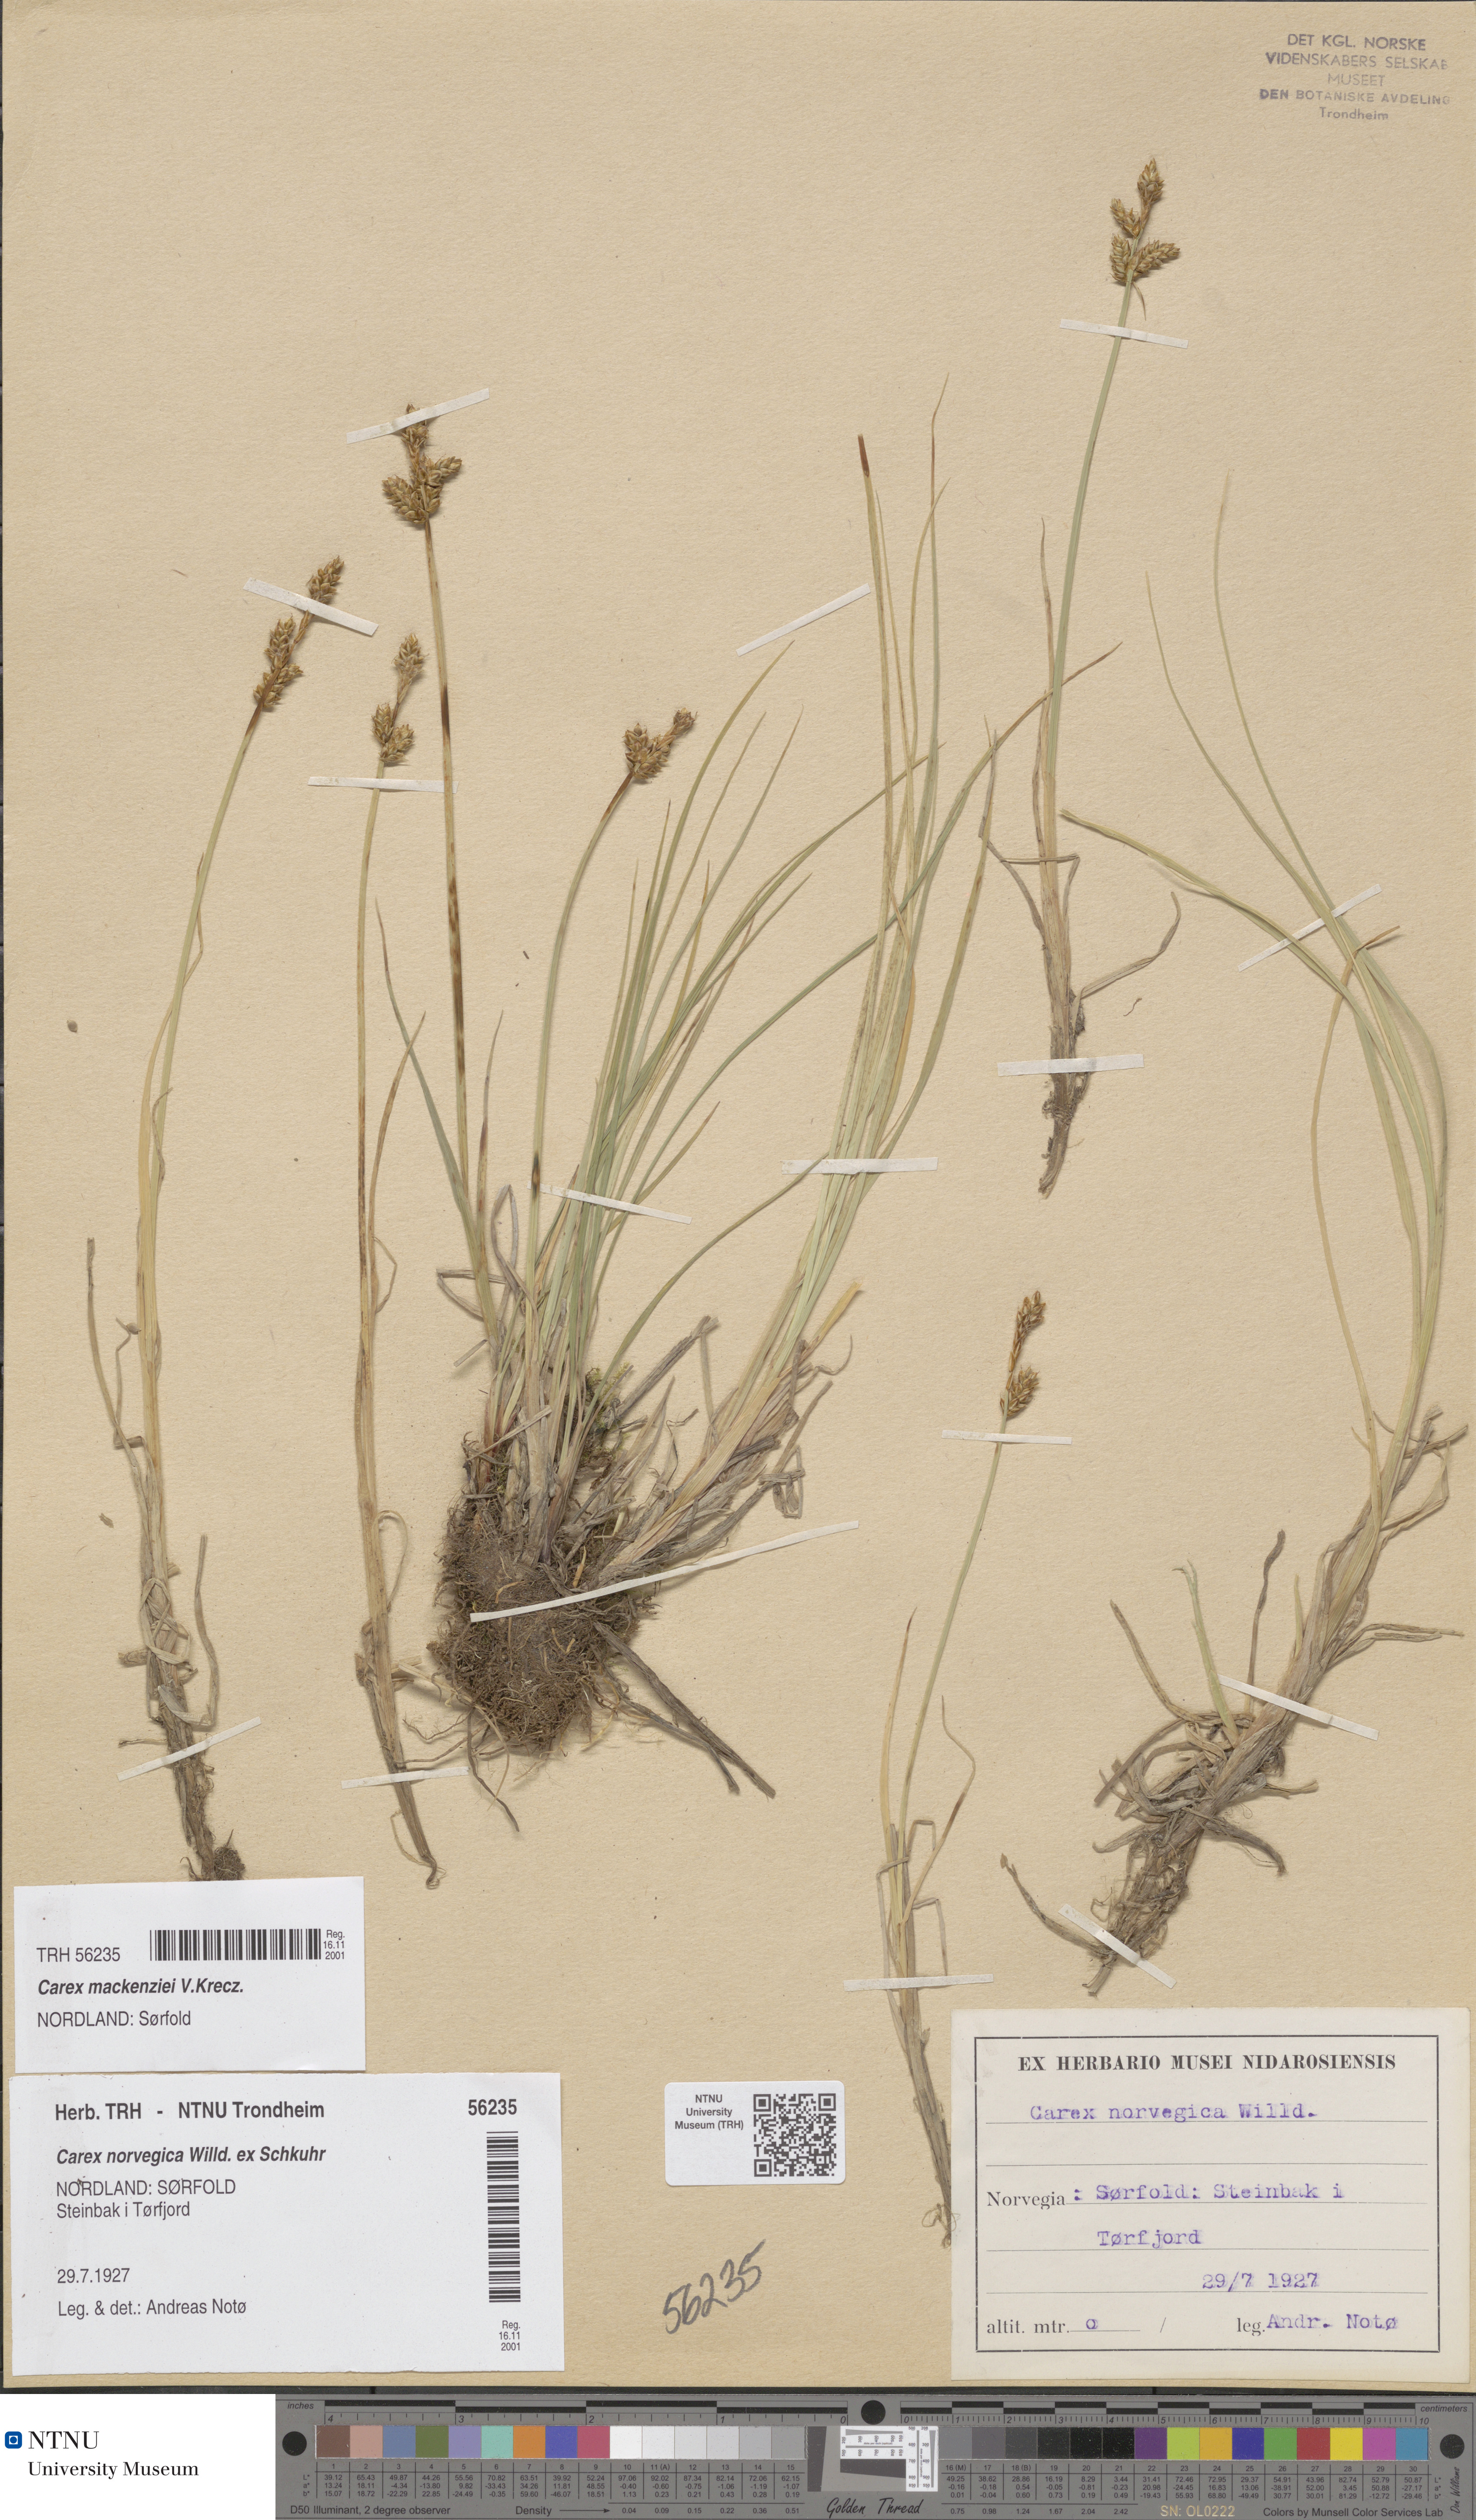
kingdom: Plantae
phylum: Tracheophyta
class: Liliopsida
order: Poales
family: Cyperaceae
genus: Carex
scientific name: Carex mackenziei
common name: Mackenzie's sedge
